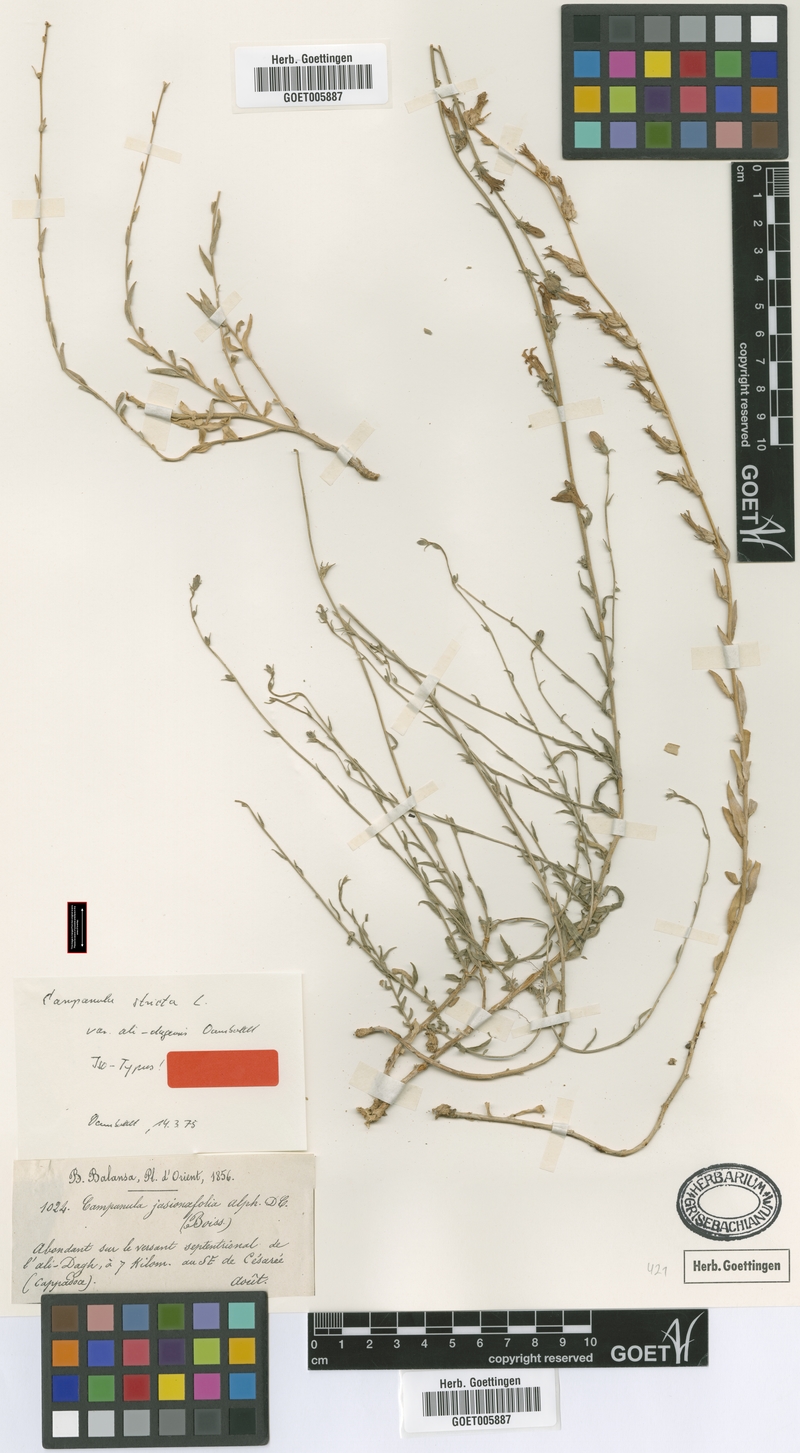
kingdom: Plantae
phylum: Tracheophyta
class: Magnoliopsida
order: Asterales
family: Campanulaceae
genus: Campanula
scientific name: Campanula stricta
